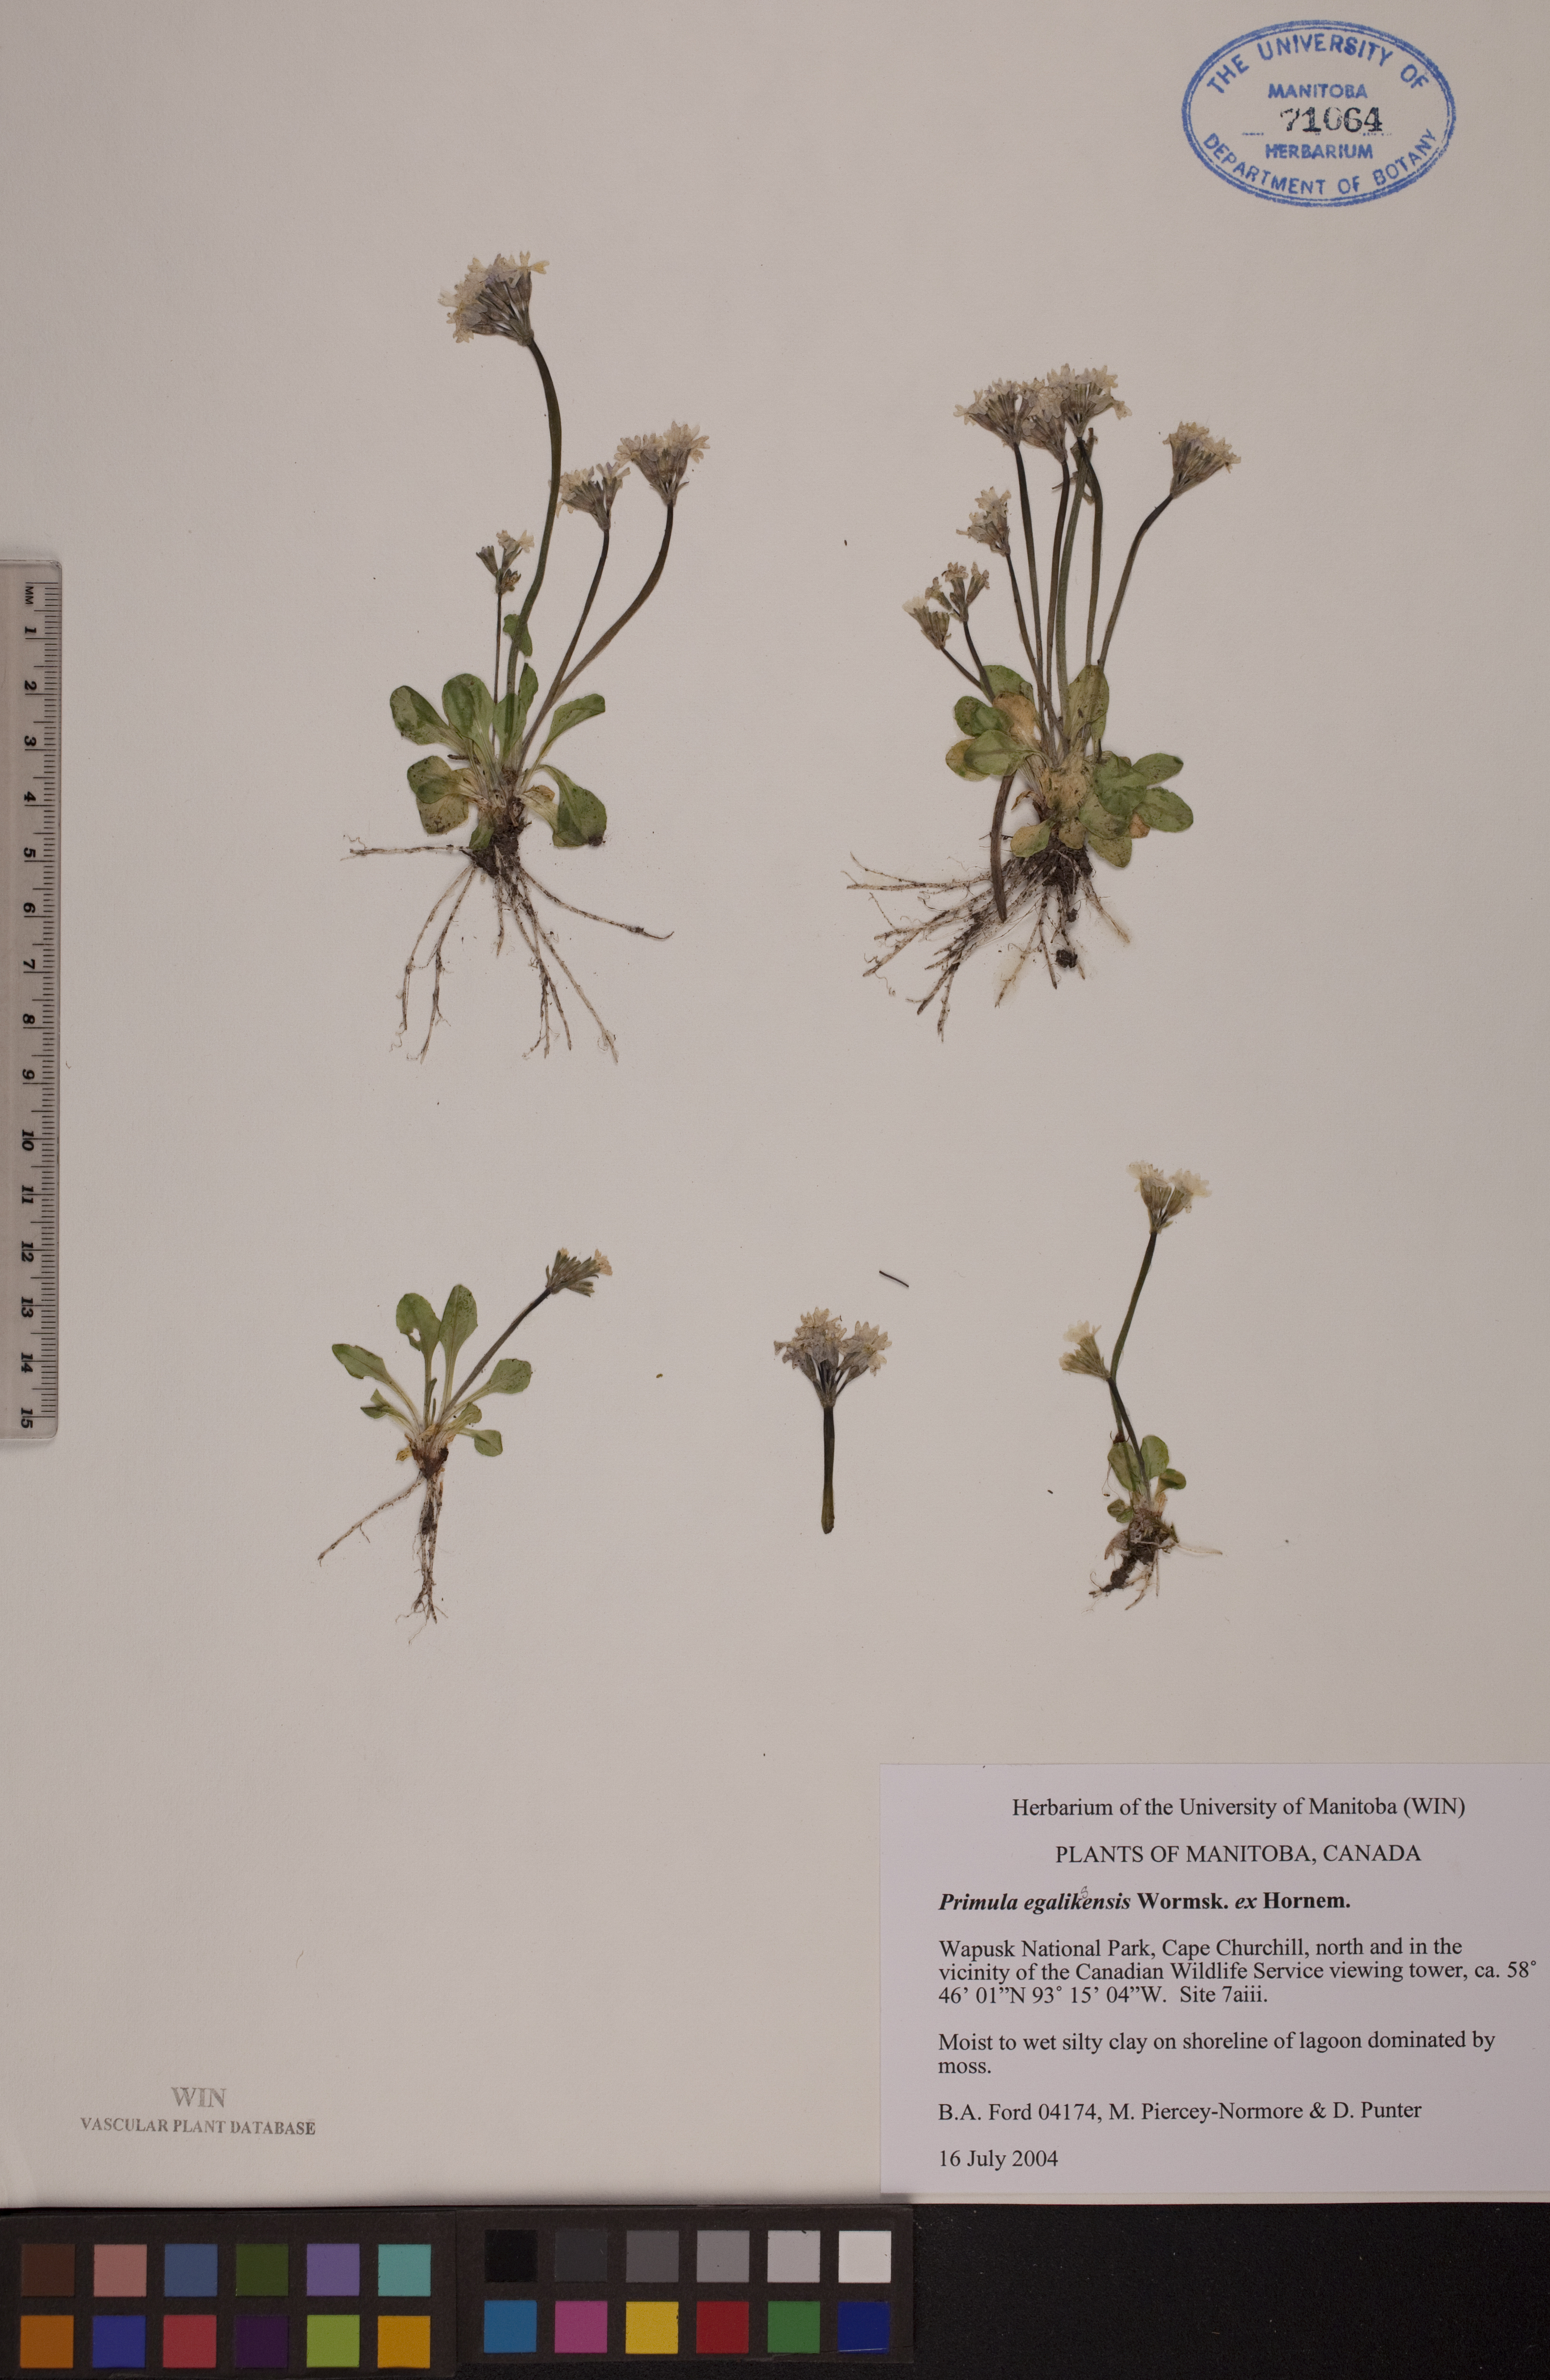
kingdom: Plantae
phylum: Tracheophyta
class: Magnoliopsida
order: Ericales
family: Primulaceae
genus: Primula
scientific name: Primula egaliksensis
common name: Greenland primrose
